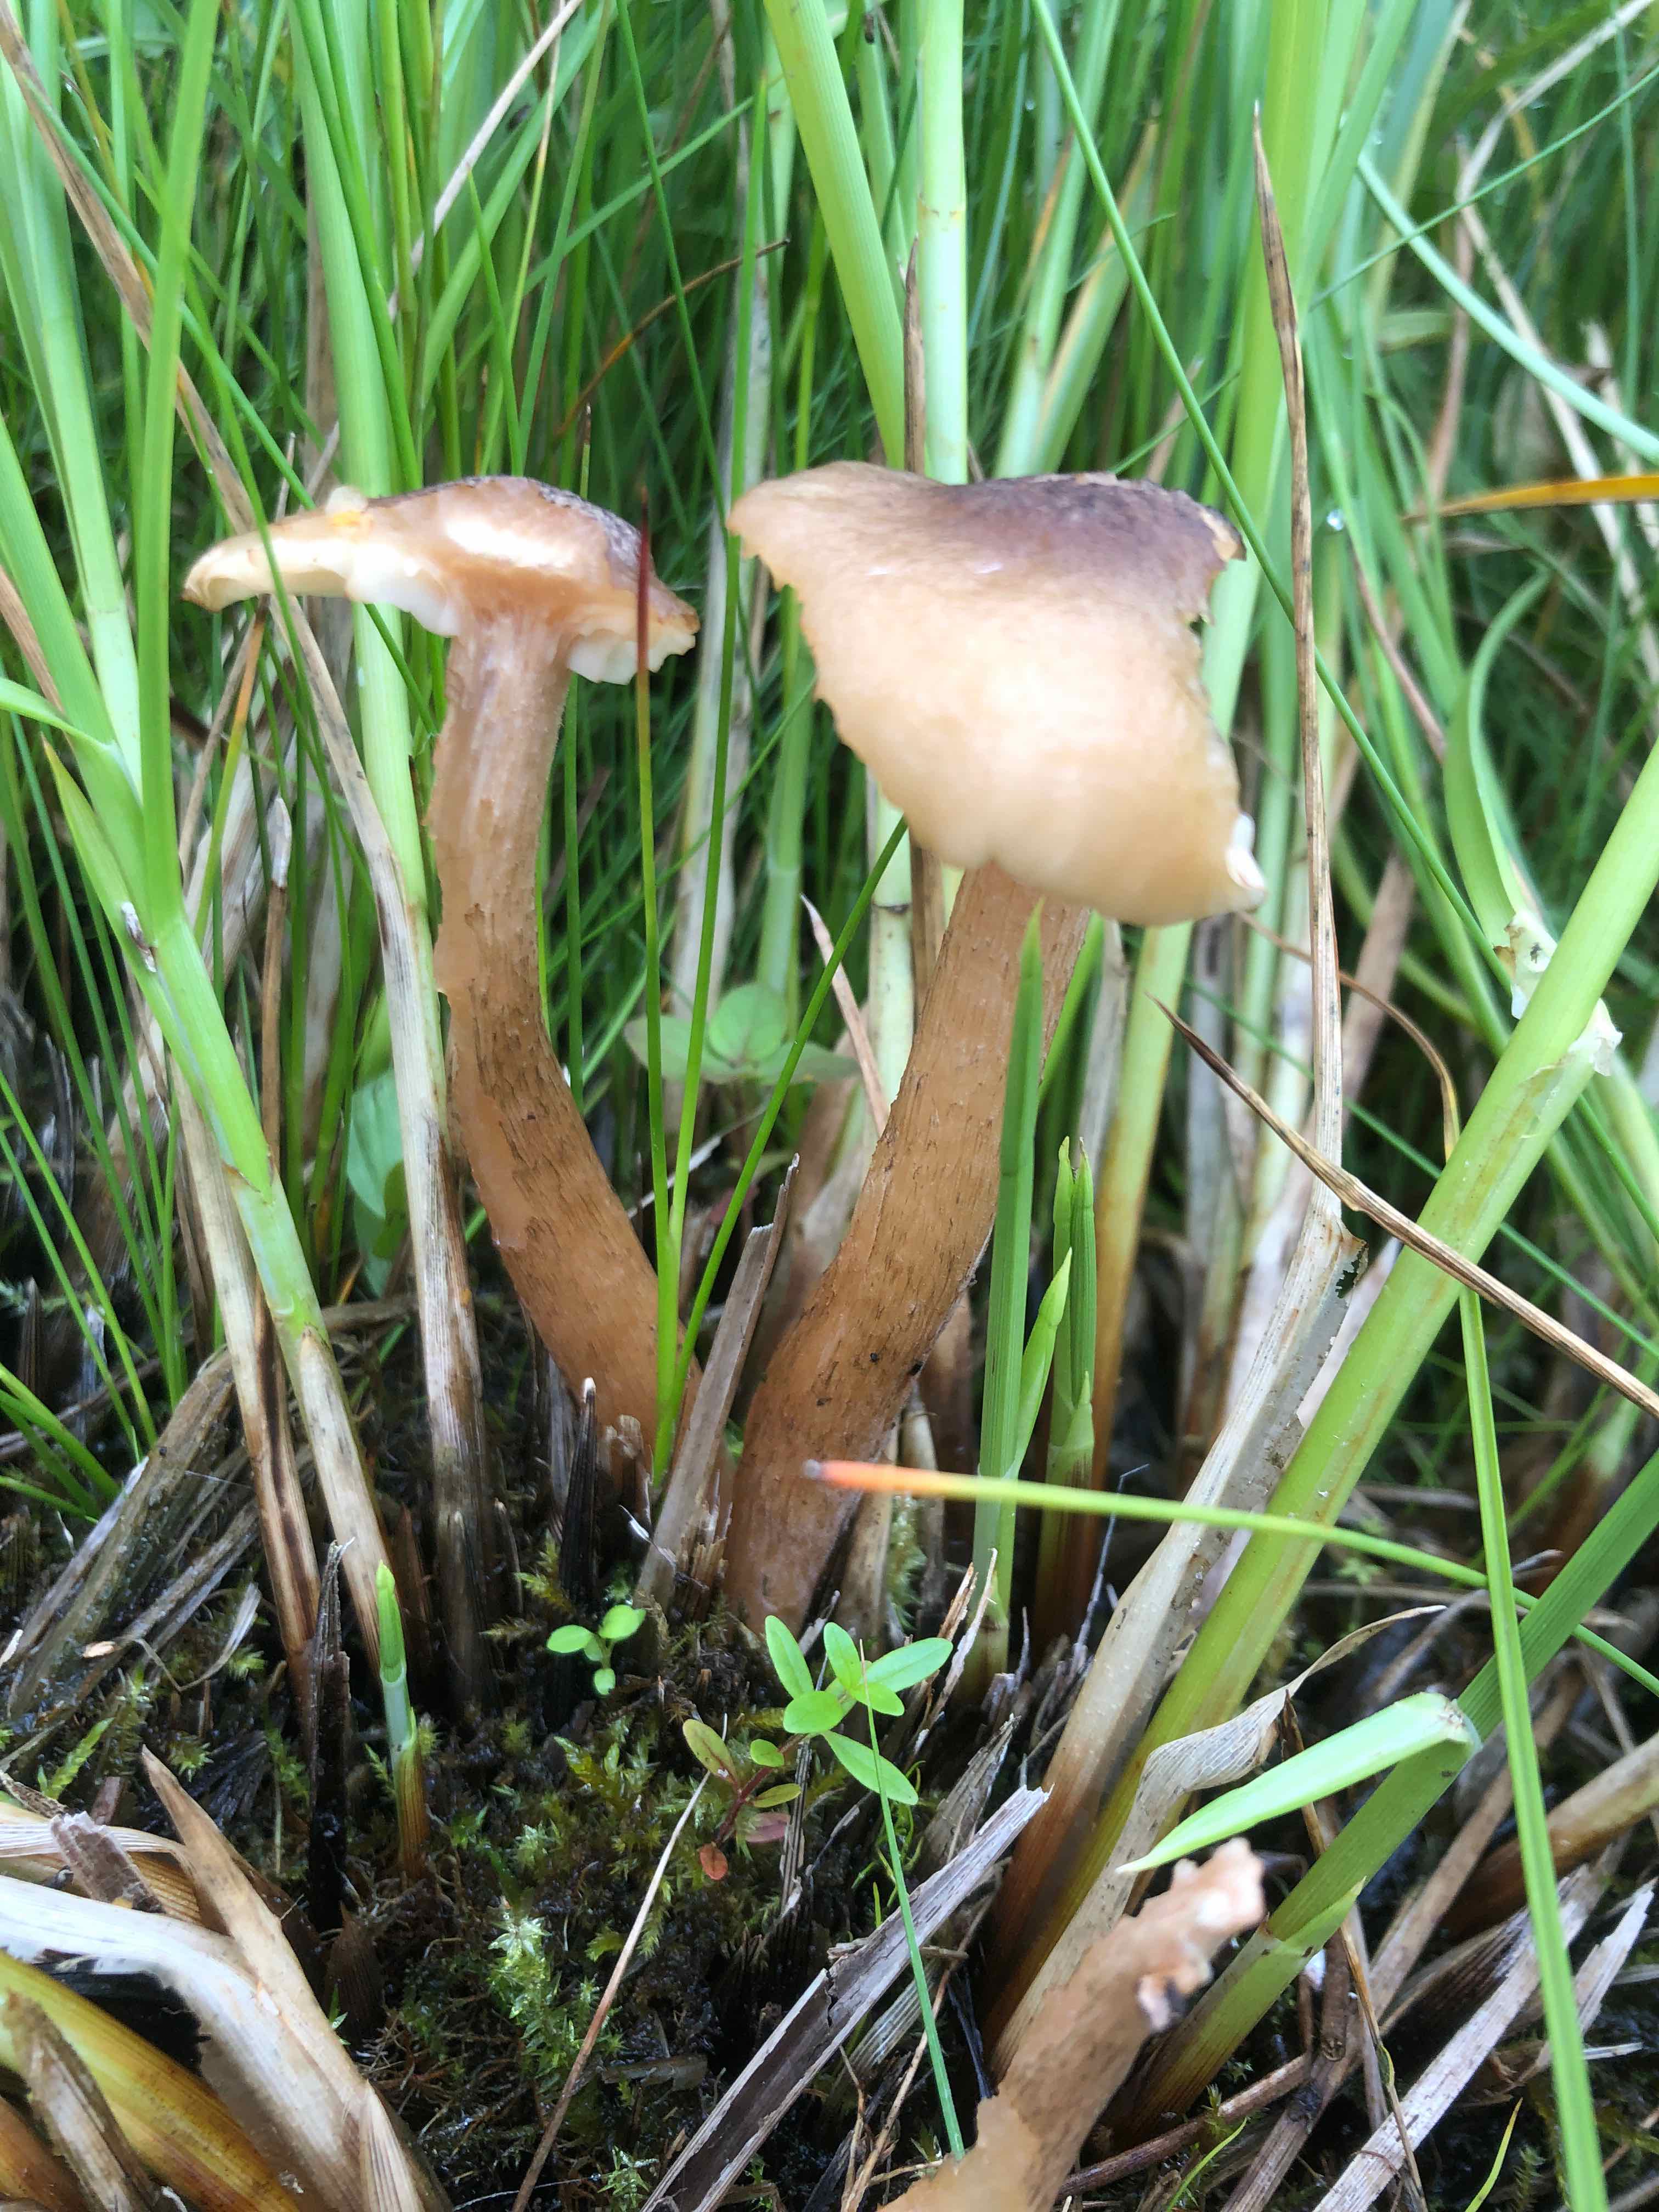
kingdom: Fungi
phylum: Basidiomycota
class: Agaricomycetes
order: Agaricales
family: Physalacriaceae
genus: Desarmillaria
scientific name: Desarmillaria ectypa
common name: ringløs honningsvamp
